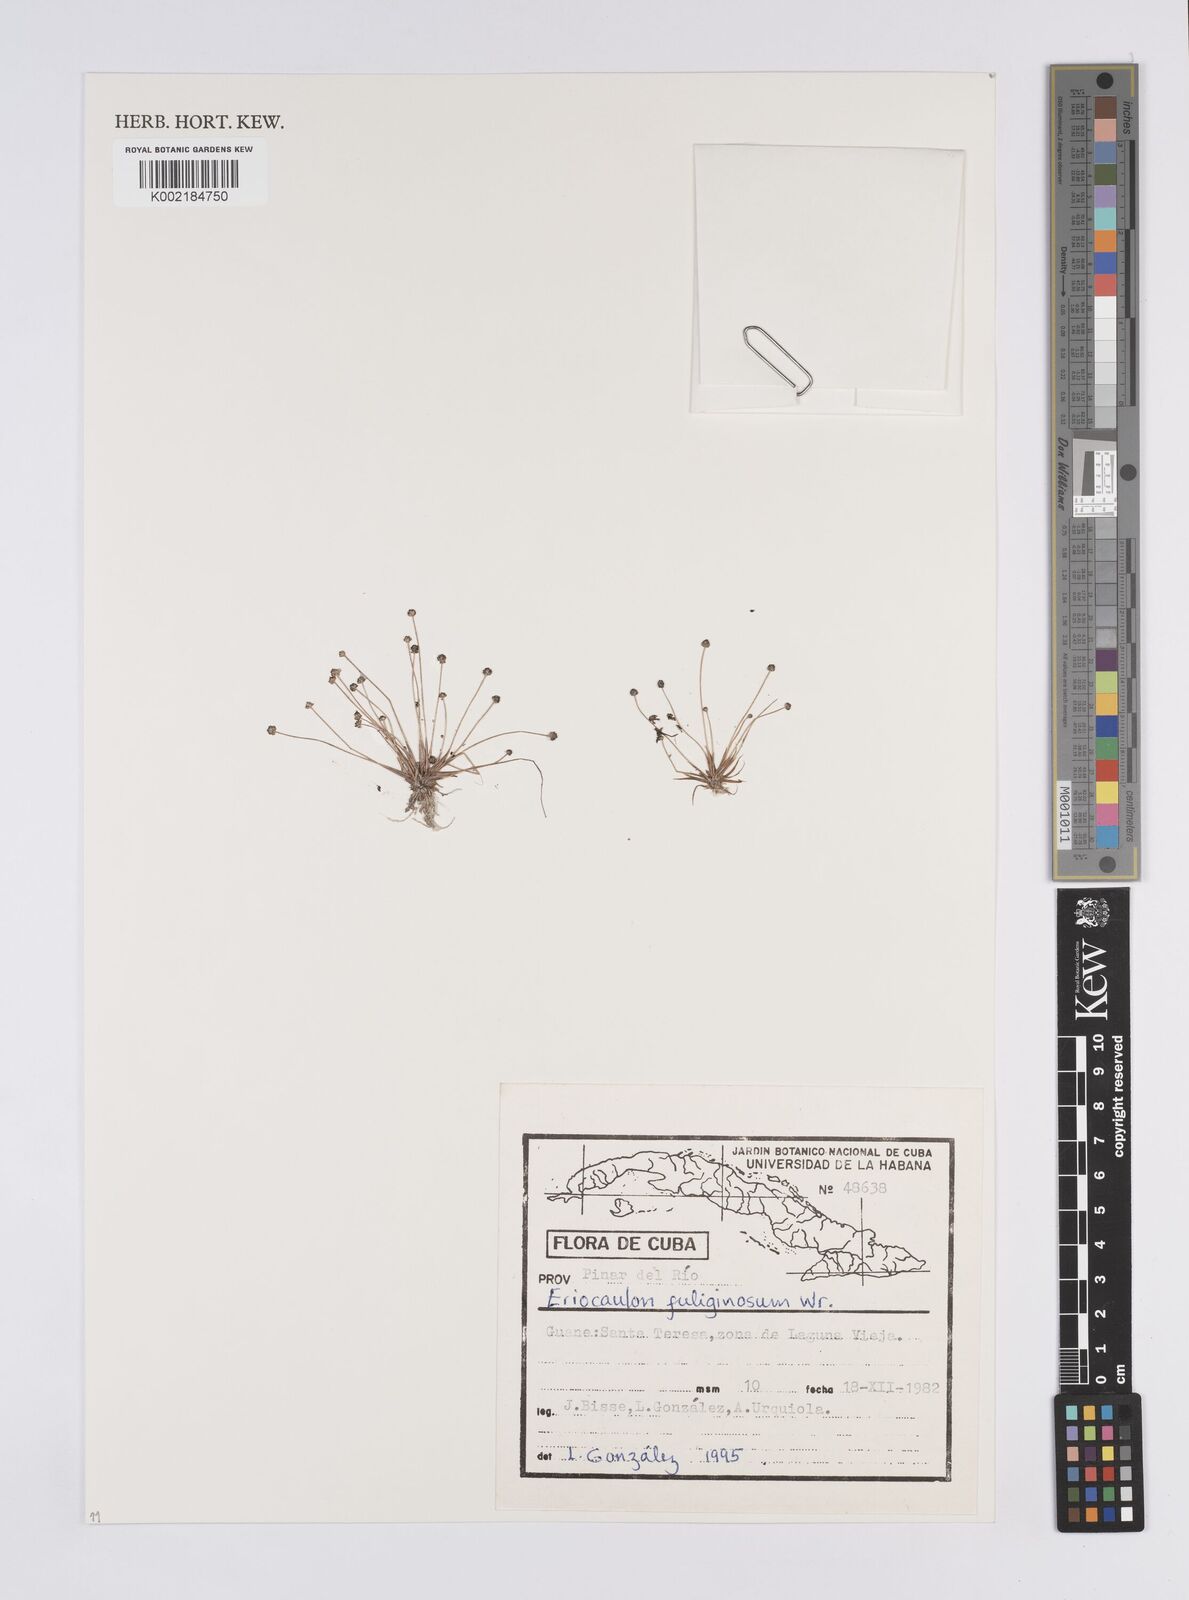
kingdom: Plantae
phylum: Tracheophyta
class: Liliopsida
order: Poales
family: Eriocaulaceae
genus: Eriocaulon
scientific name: Eriocaulon fuliginosum
